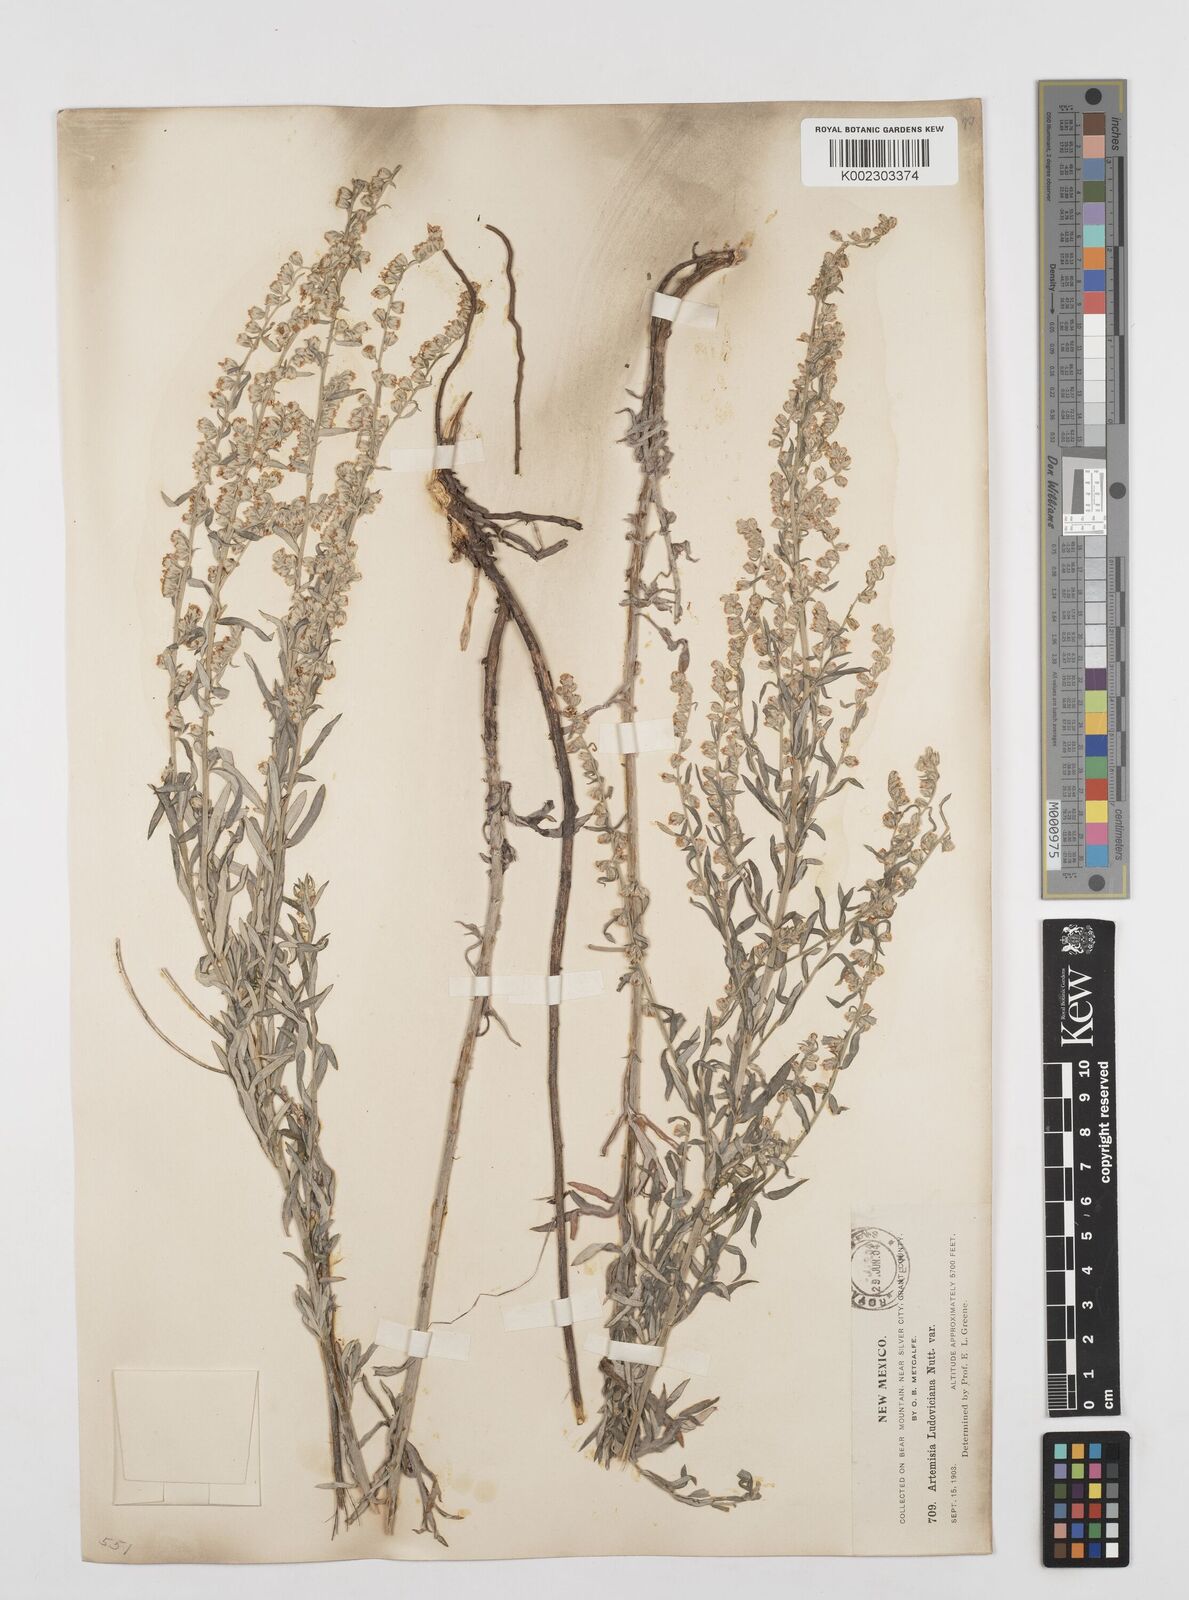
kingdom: Plantae
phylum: Tracheophyta
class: Magnoliopsida
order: Asterales
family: Asteraceae
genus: Artemisia
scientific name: Artemisia
